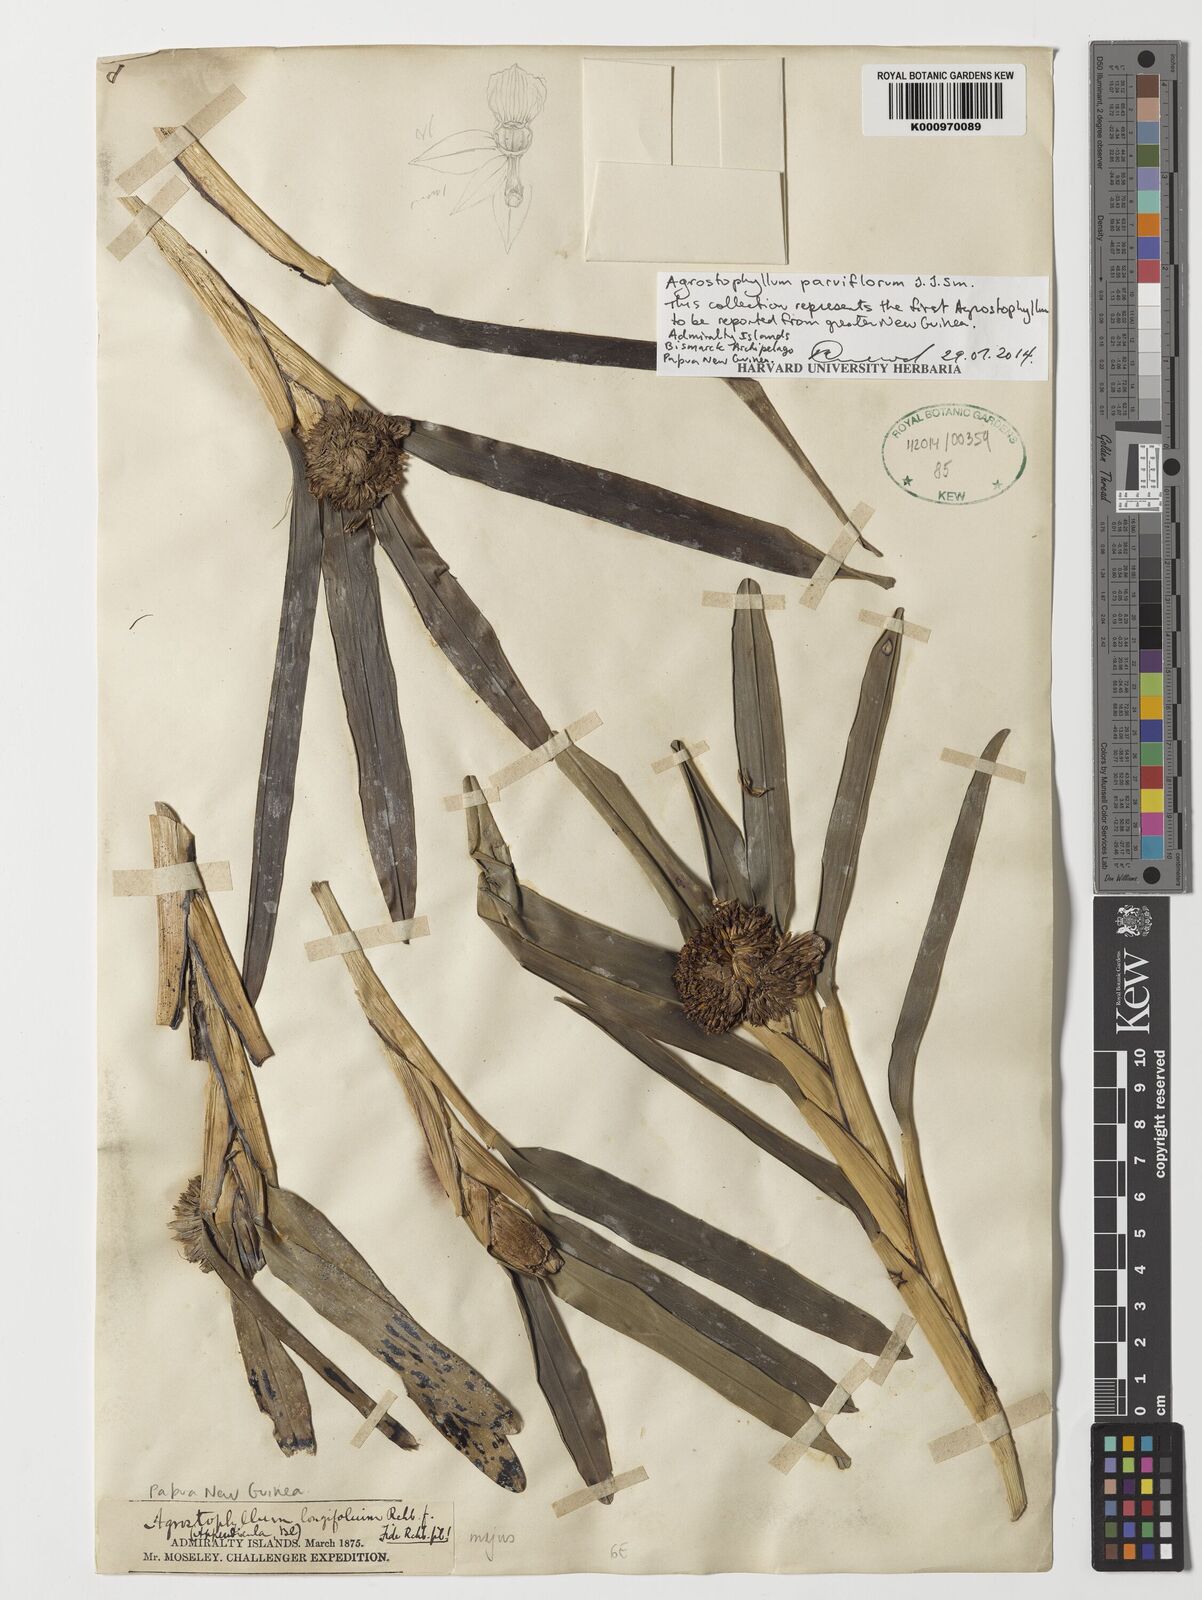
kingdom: Plantae
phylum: Tracheophyta
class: Liliopsida
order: Asparagales
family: Orchidaceae
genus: Agrostophyllum
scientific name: Agrostophyllum parviflorum
